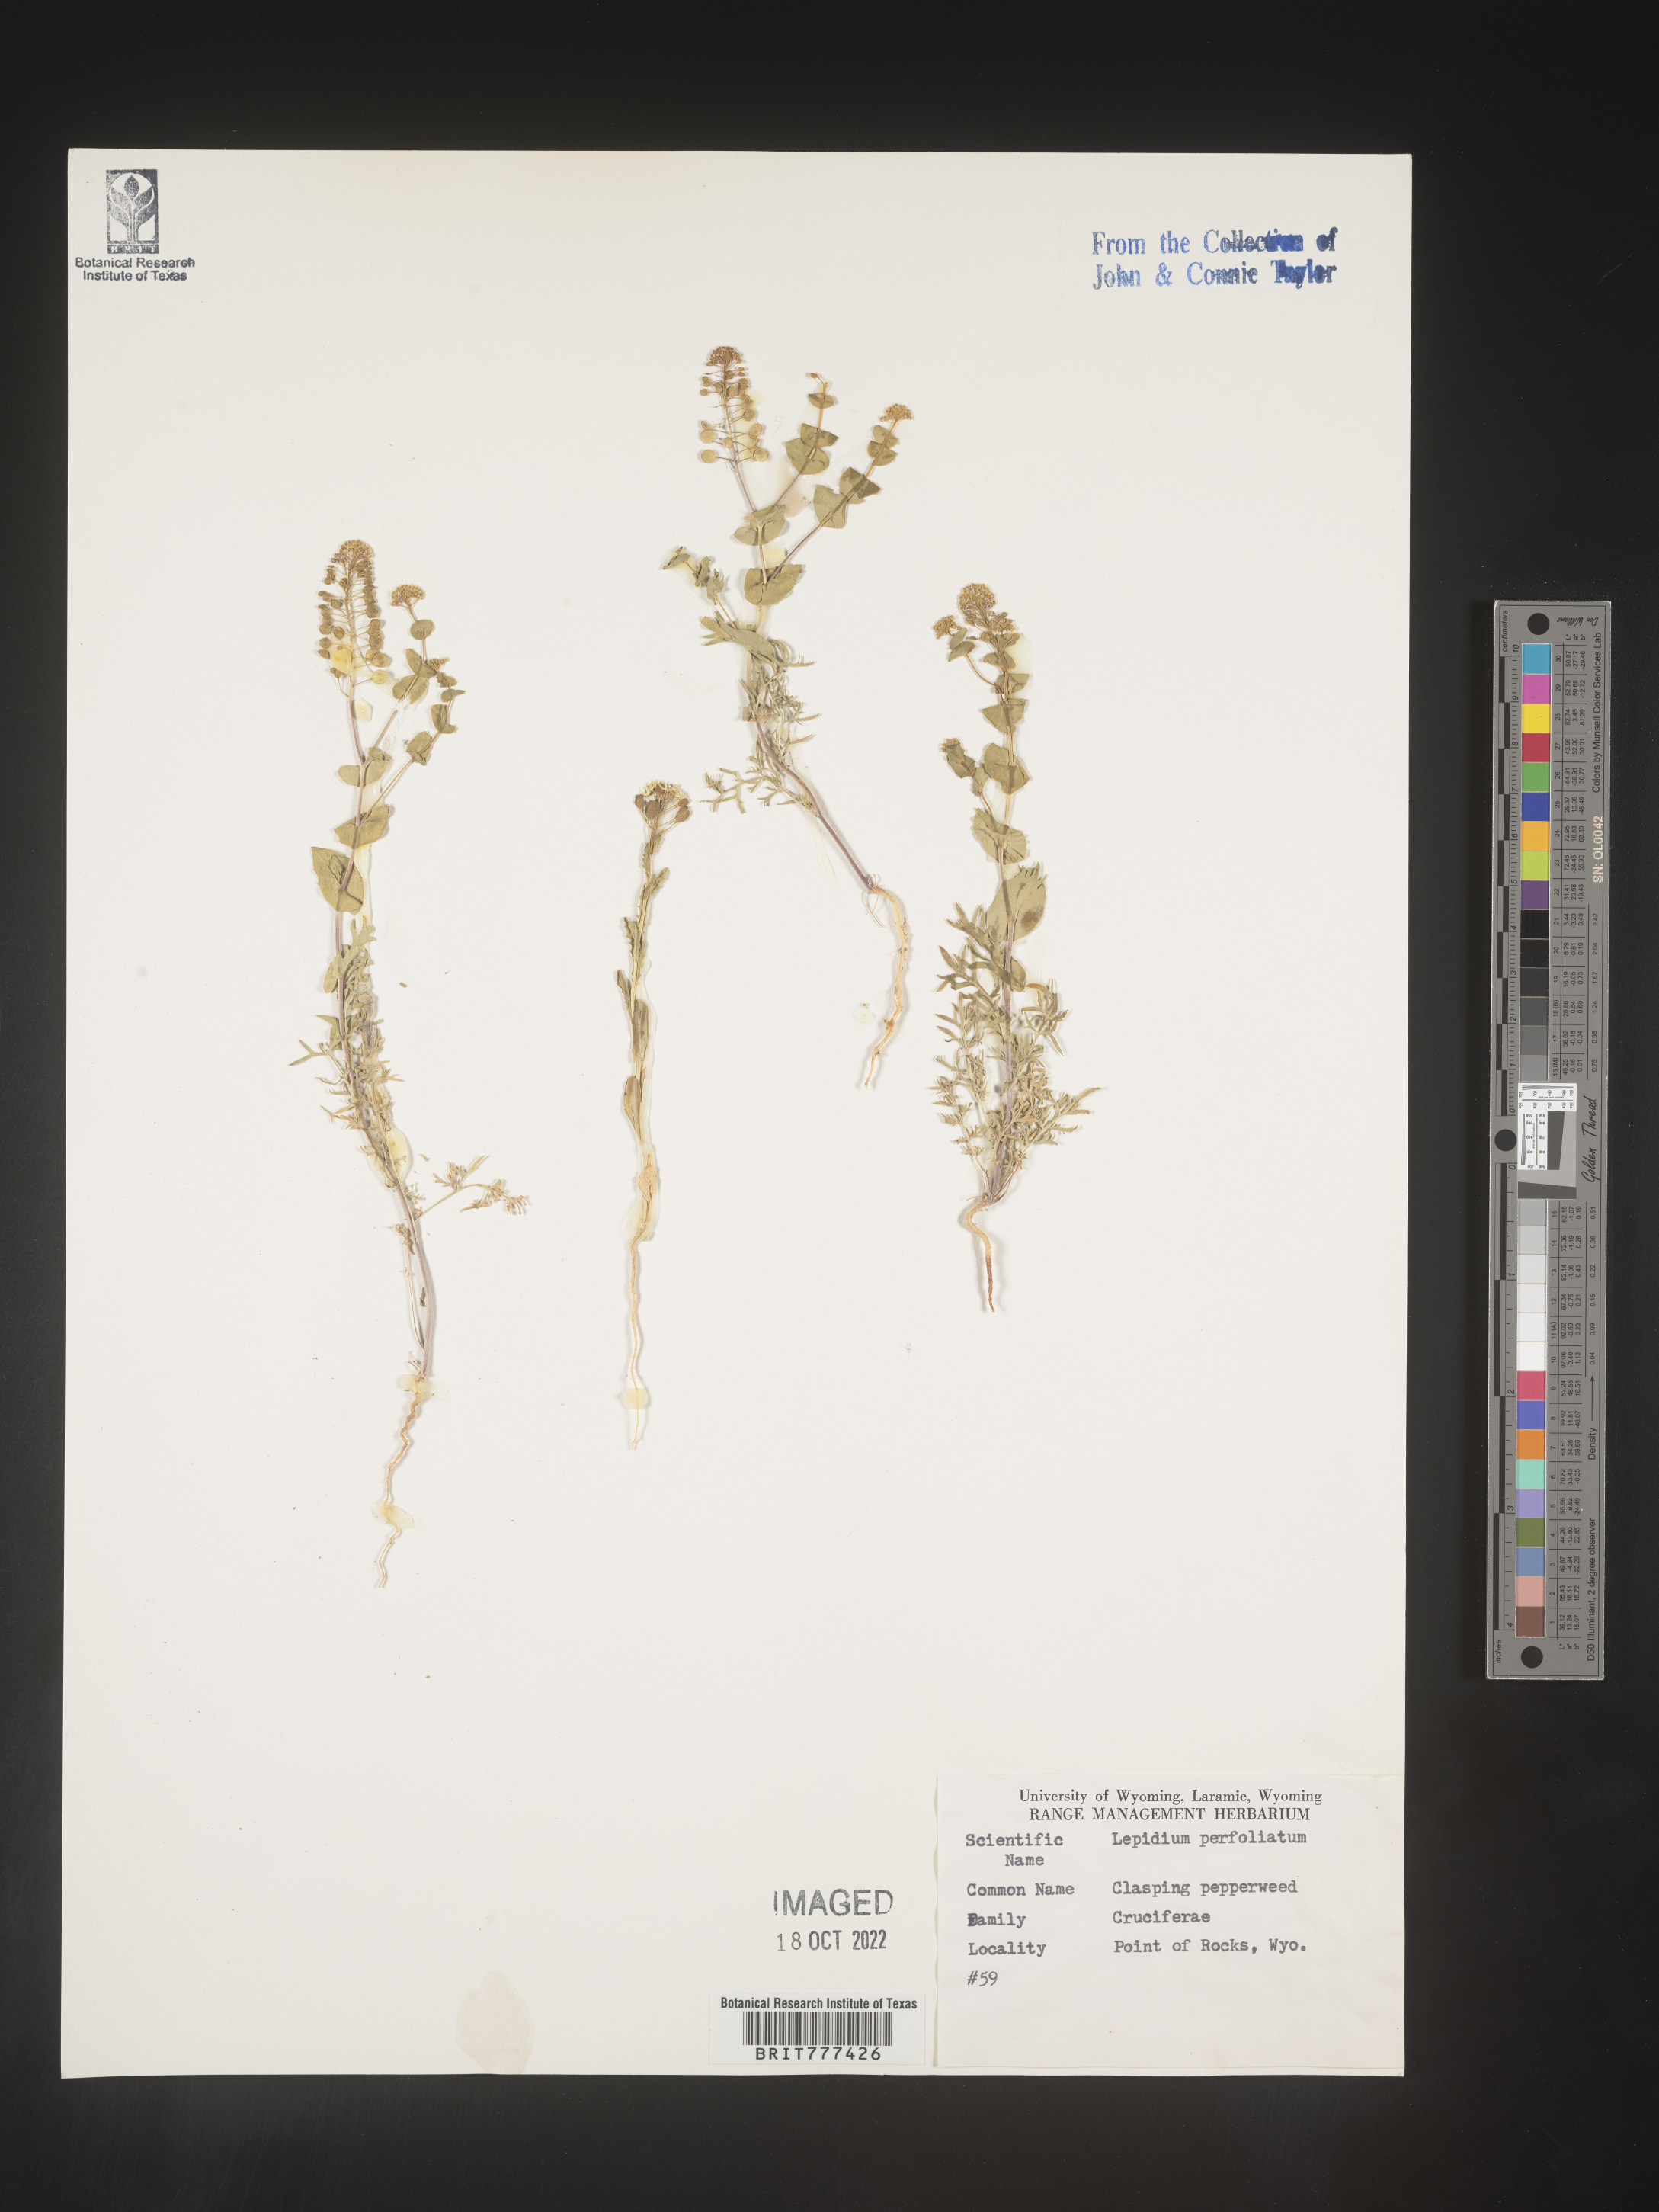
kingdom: Plantae
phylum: Tracheophyta
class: Magnoliopsida
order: Brassicales
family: Brassicaceae
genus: Lepidium
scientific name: Lepidium perfoliatum
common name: Perfoliate pepperwort
